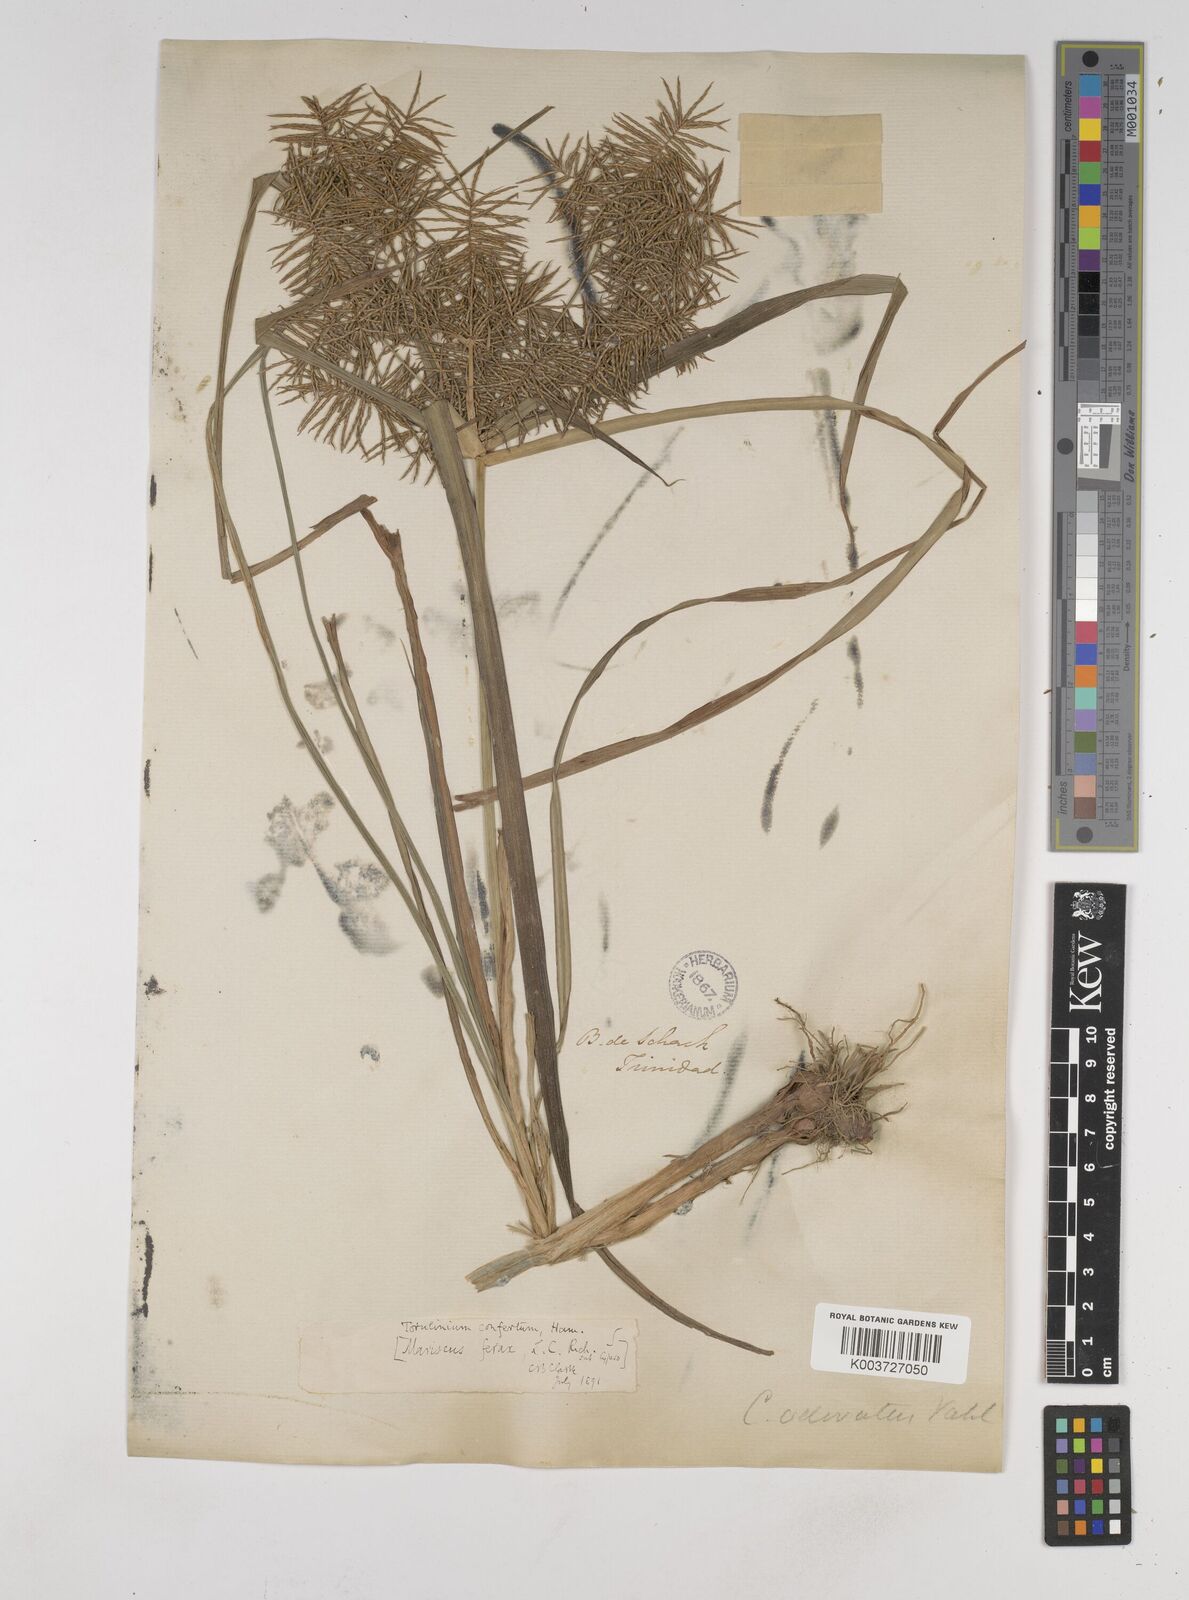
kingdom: Plantae
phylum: Tracheophyta
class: Liliopsida
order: Poales
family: Cyperaceae
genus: Cyperus
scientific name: Cyperus odoratus
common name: Fragrant flatsedge
